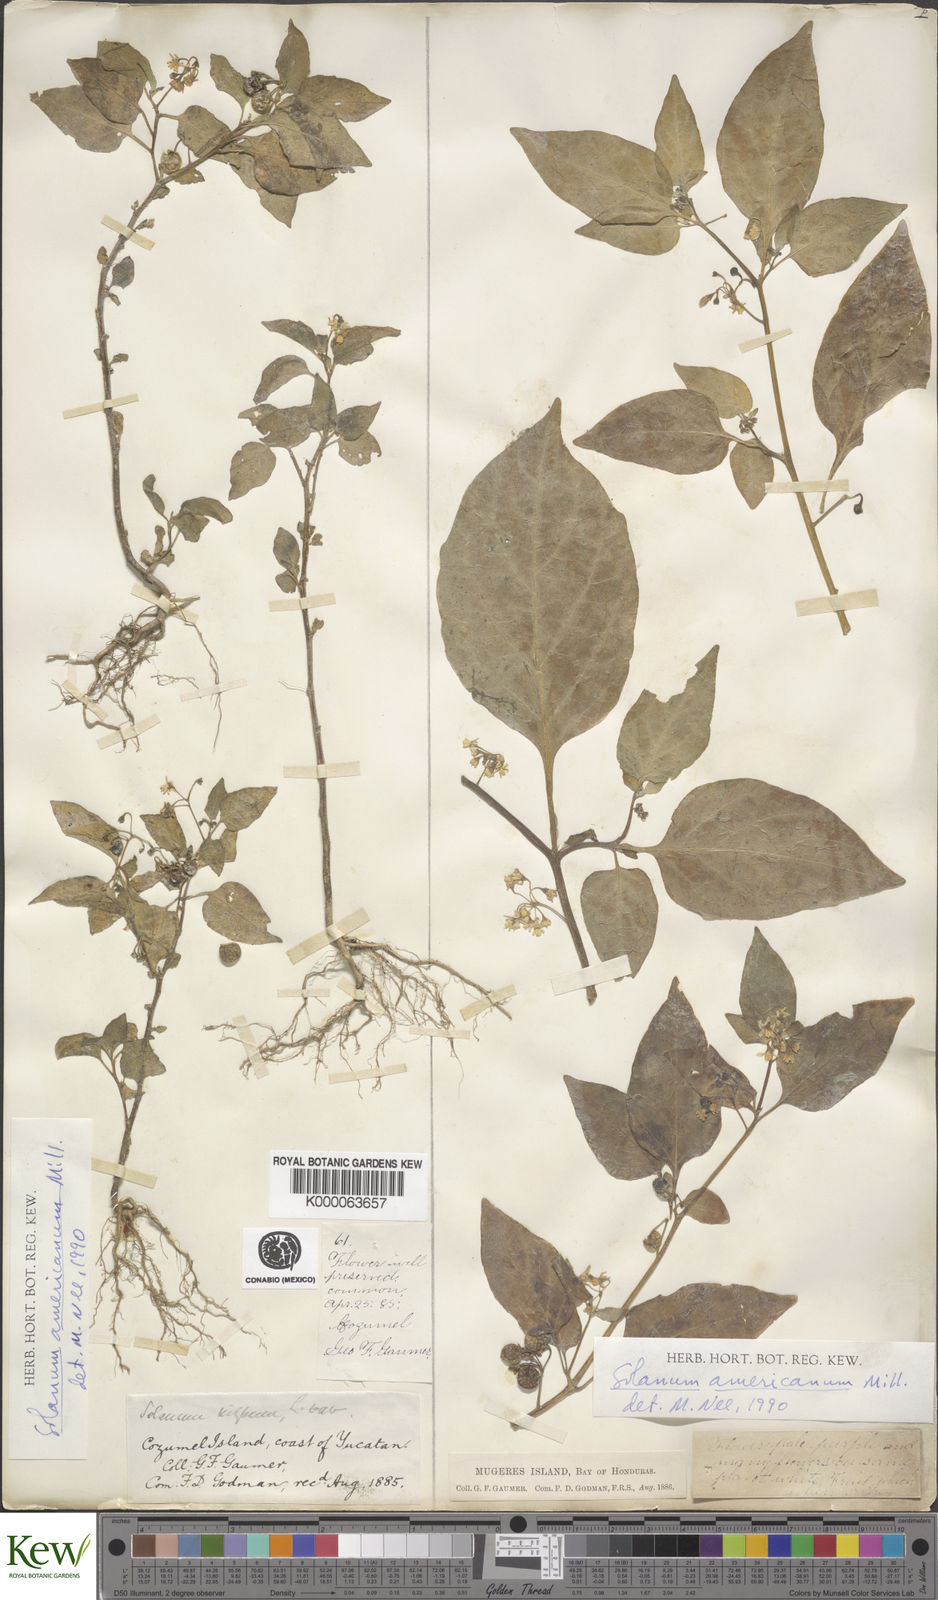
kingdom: Plantae
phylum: Tracheophyta
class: Magnoliopsida
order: Solanales
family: Solanaceae
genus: Solanum
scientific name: Solanum americanum
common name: American black nightshade
